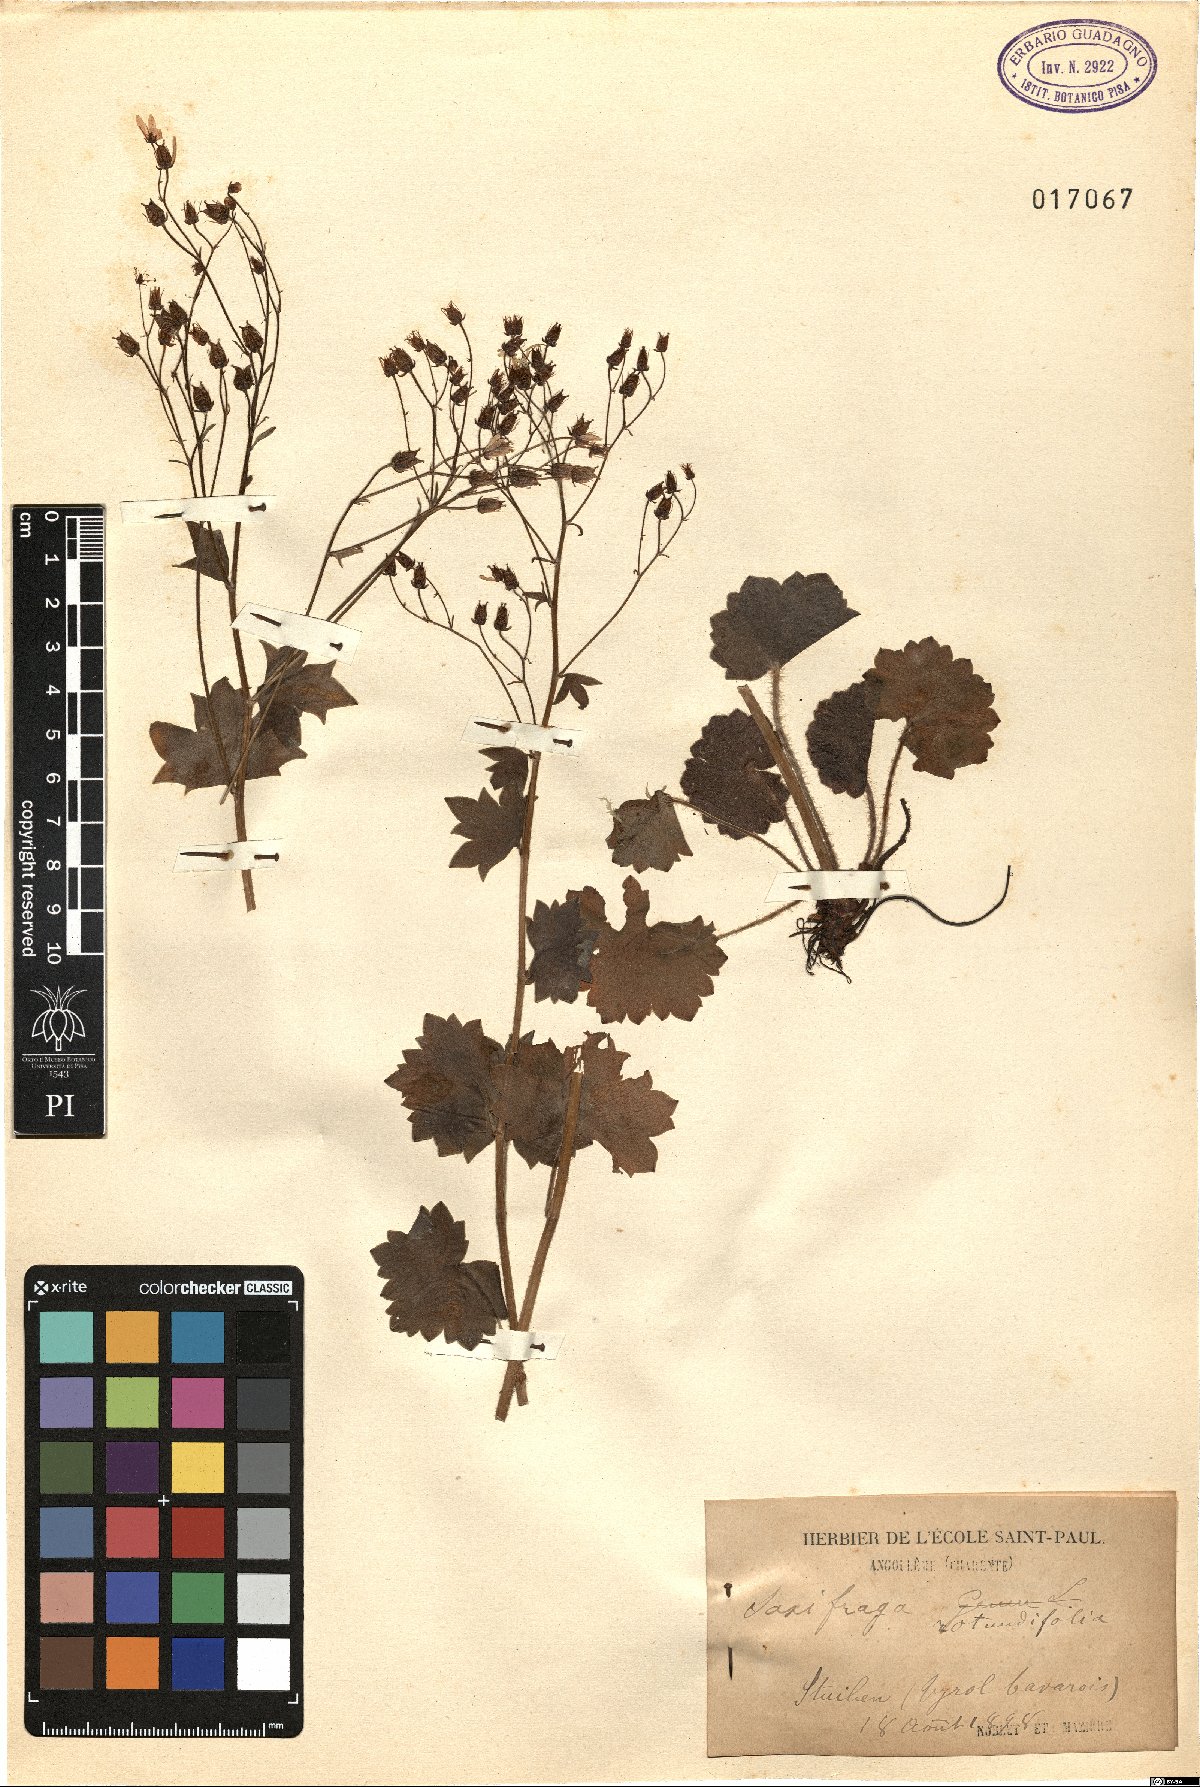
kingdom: Plantae
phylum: Tracheophyta
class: Magnoliopsida
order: Saxifragales
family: Saxifragaceae
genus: Saxifraga
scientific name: Saxifraga rotundifolia
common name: Round-leaved saxifrage
